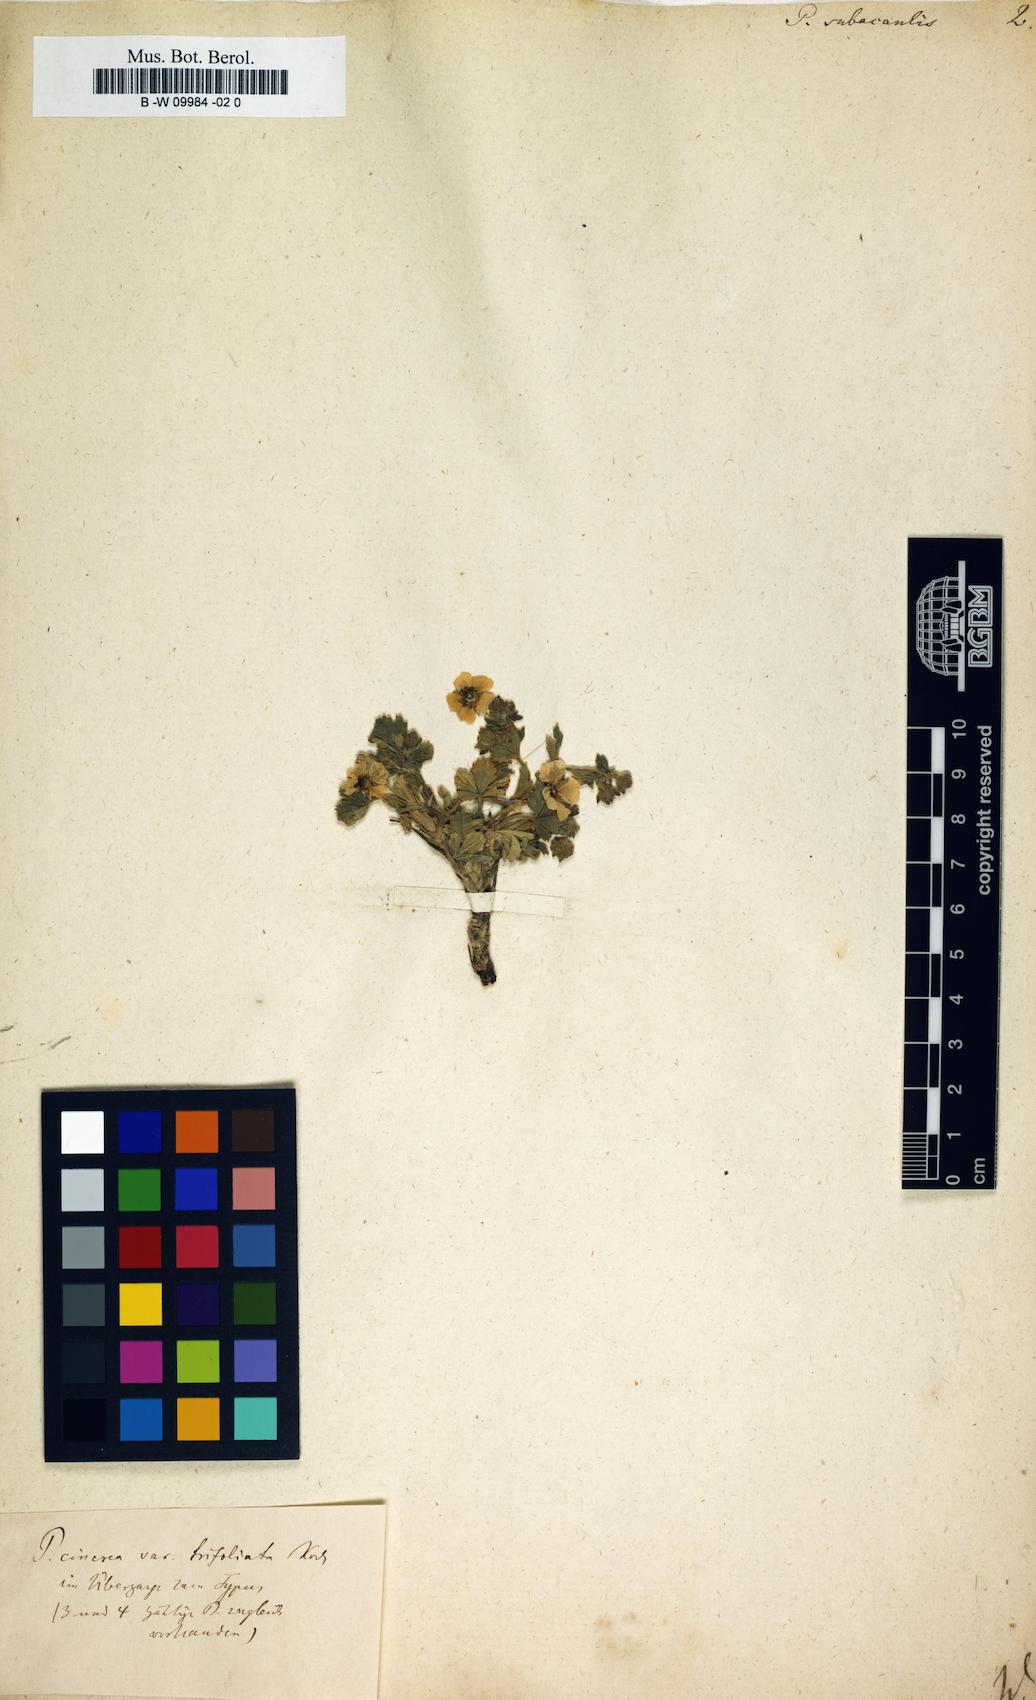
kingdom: Plantae
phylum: Tracheophyta
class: Magnoliopsida
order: Rosales
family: Rosaceae
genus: Potentilla
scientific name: Potentilla cinerea
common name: Ashy cinquefoil
